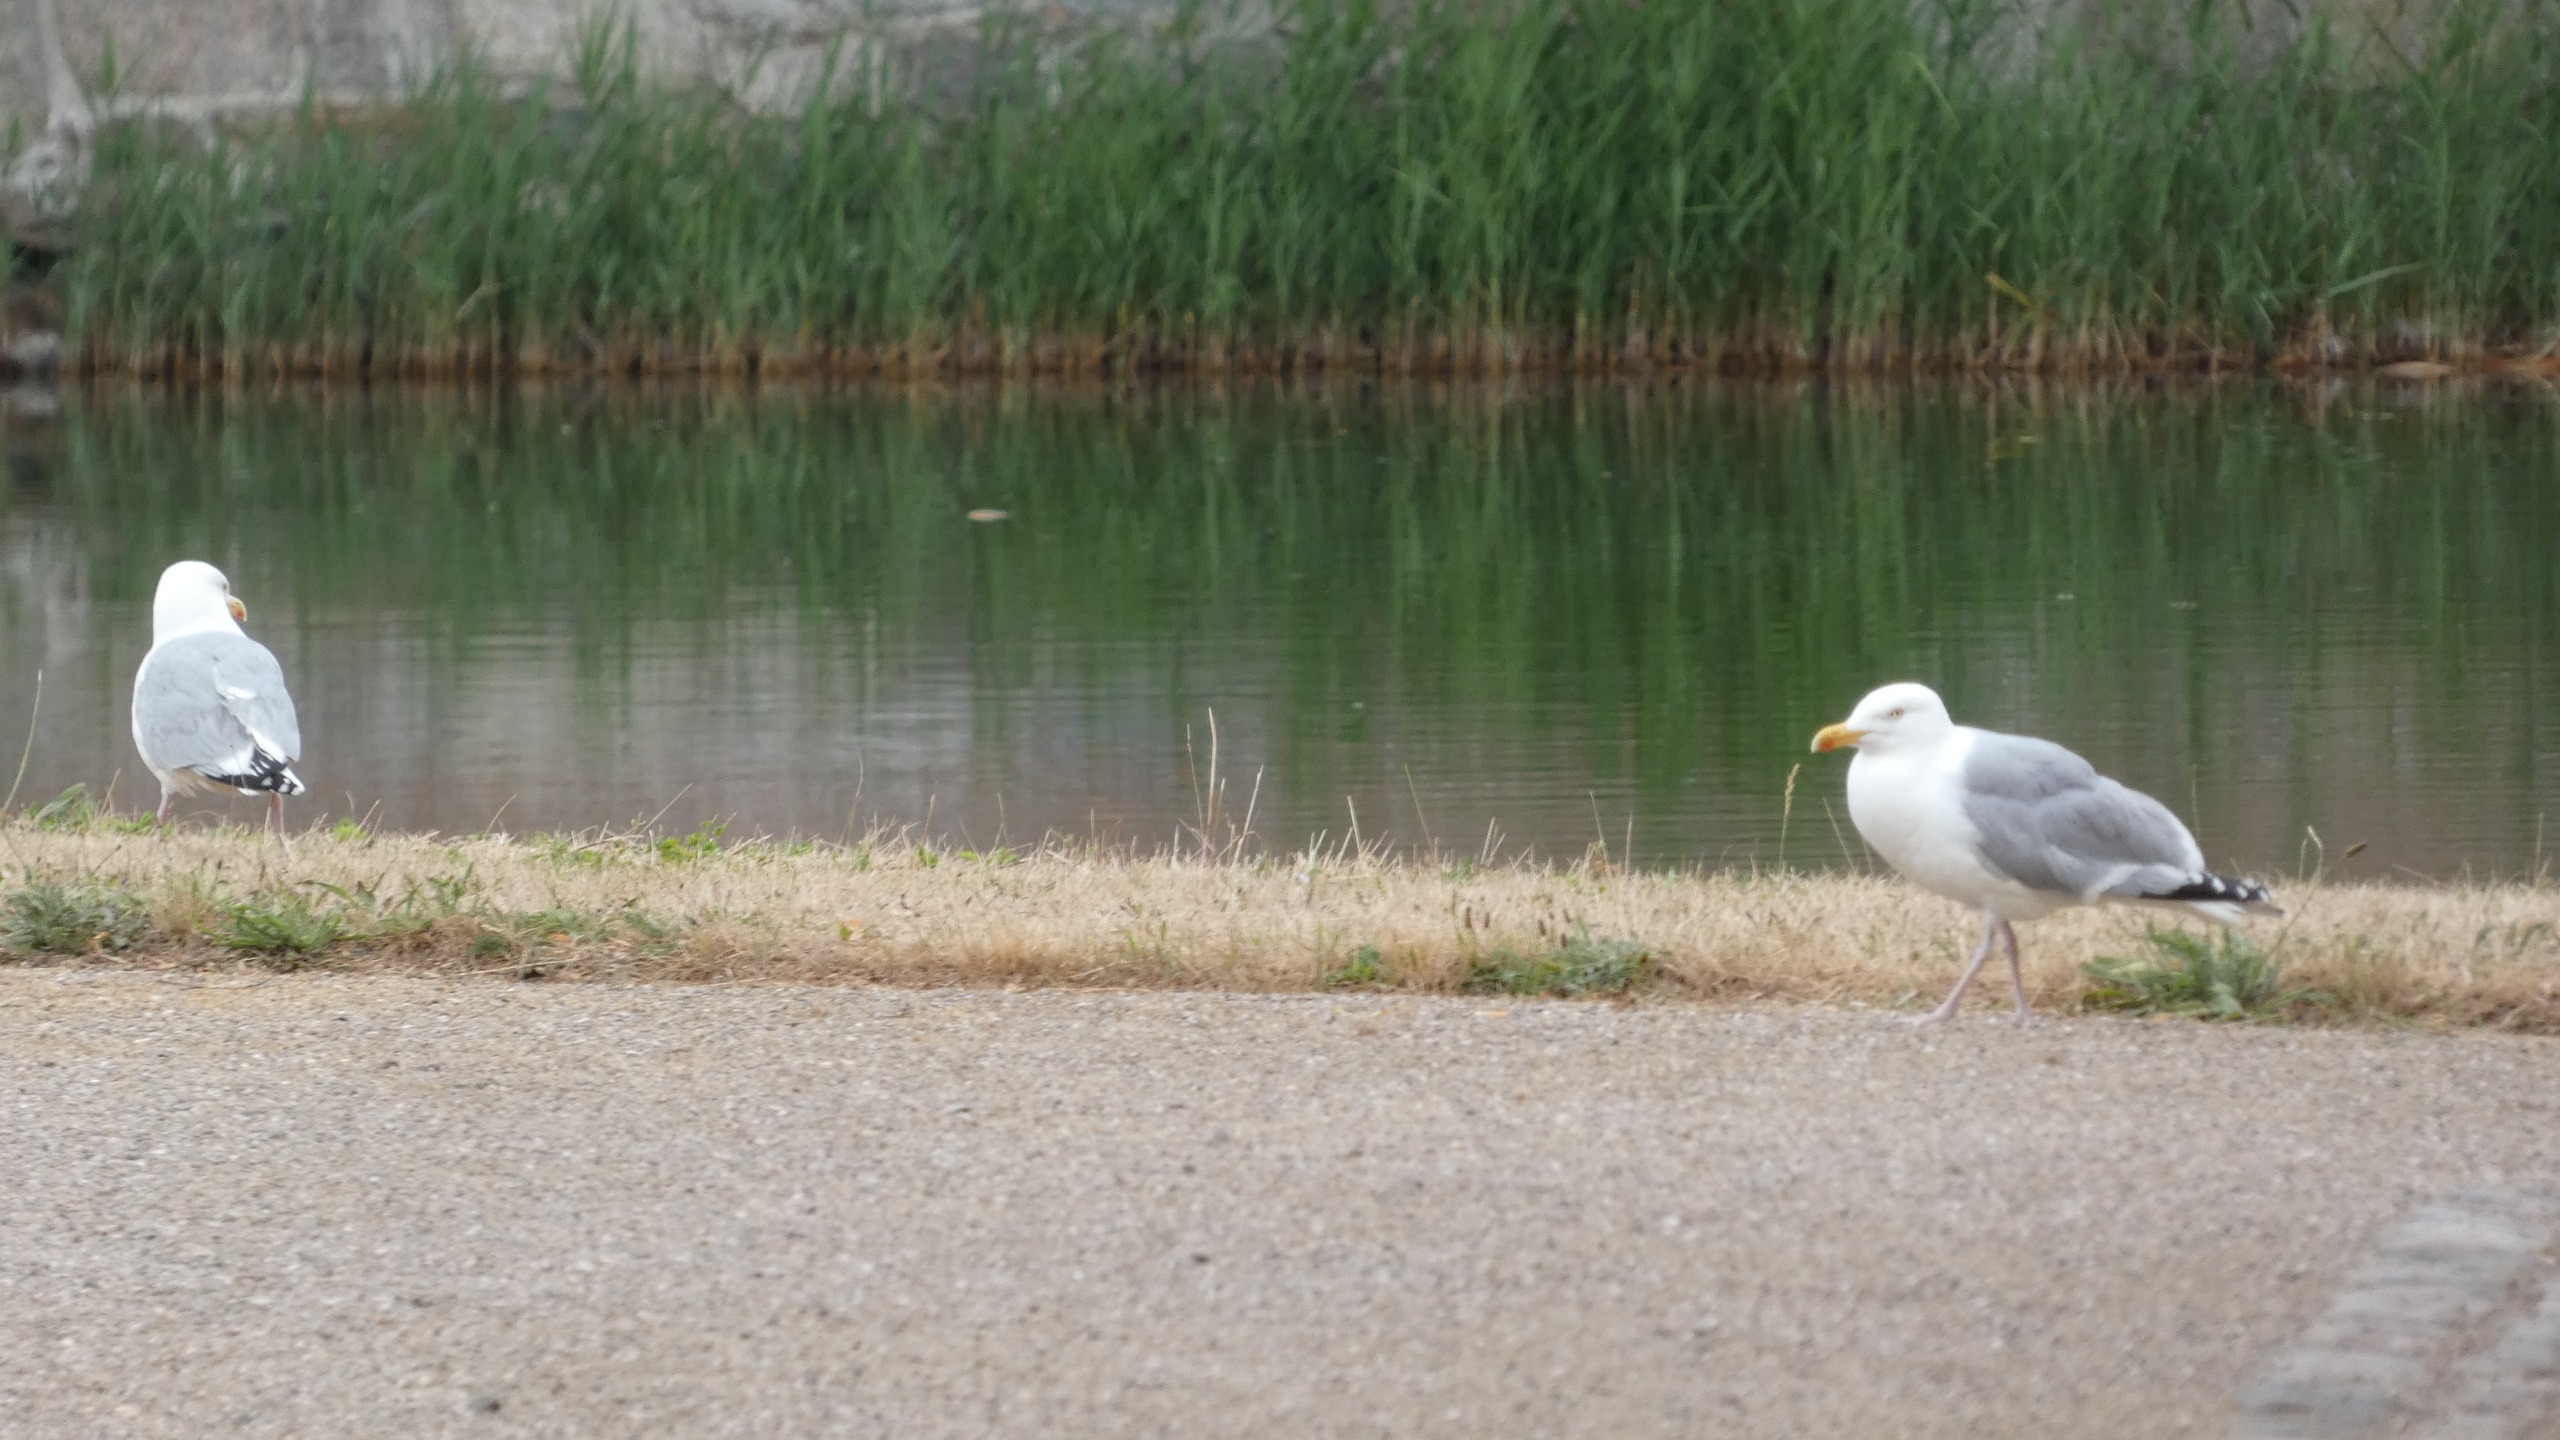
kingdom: Animalia
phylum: Chordata
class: Aves
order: Charadriiformes
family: Laridae
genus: Larus
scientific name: Larus argentatus
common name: Sølvmåge
